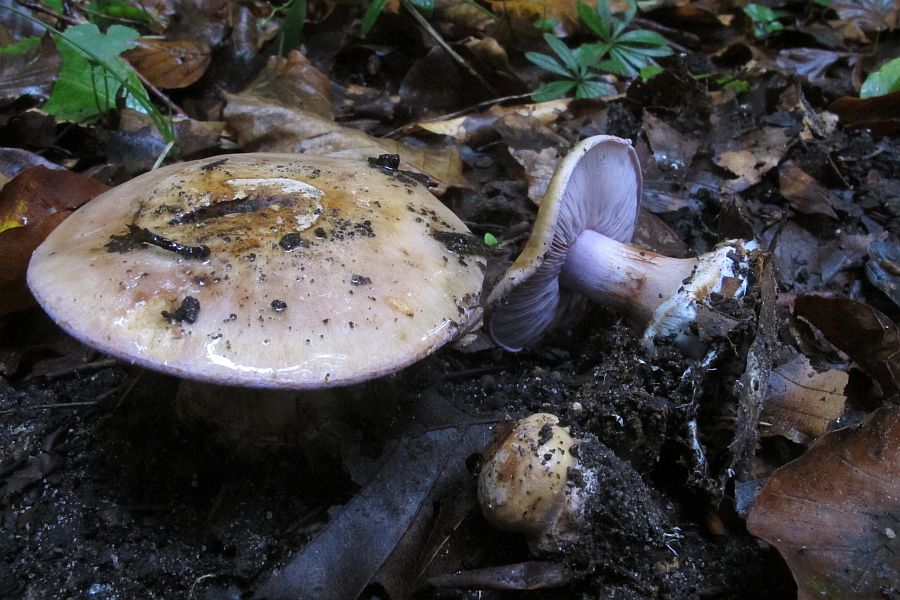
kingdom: Fungi
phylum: Basidiomycota
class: Agaricomycetes
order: Agaricales
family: Cortinariaceae
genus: Calonarius
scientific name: Calonarius selandicus
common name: sjællandsk slørhat
